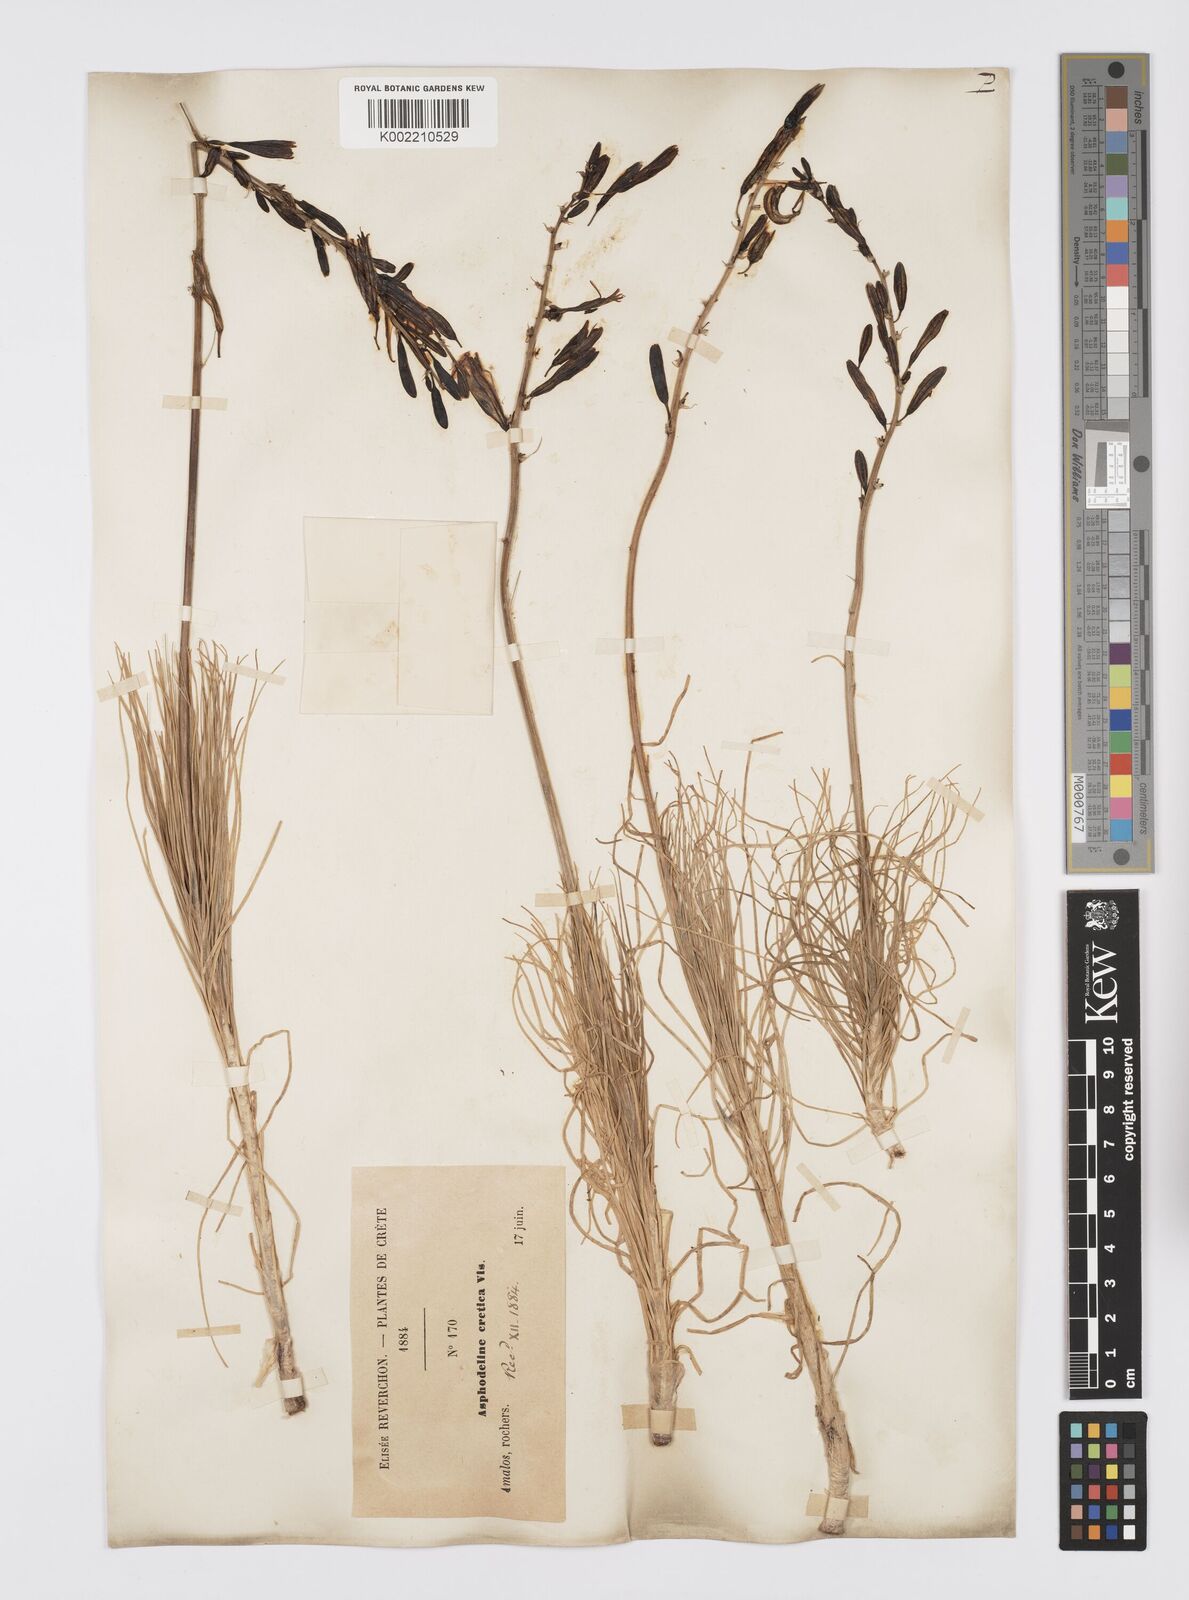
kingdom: Plantae
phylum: Tracheophyta
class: Liliopsida
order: Asparagales
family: Asphodelaceae
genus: Asphodeline
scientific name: Asphodeline liburnica
